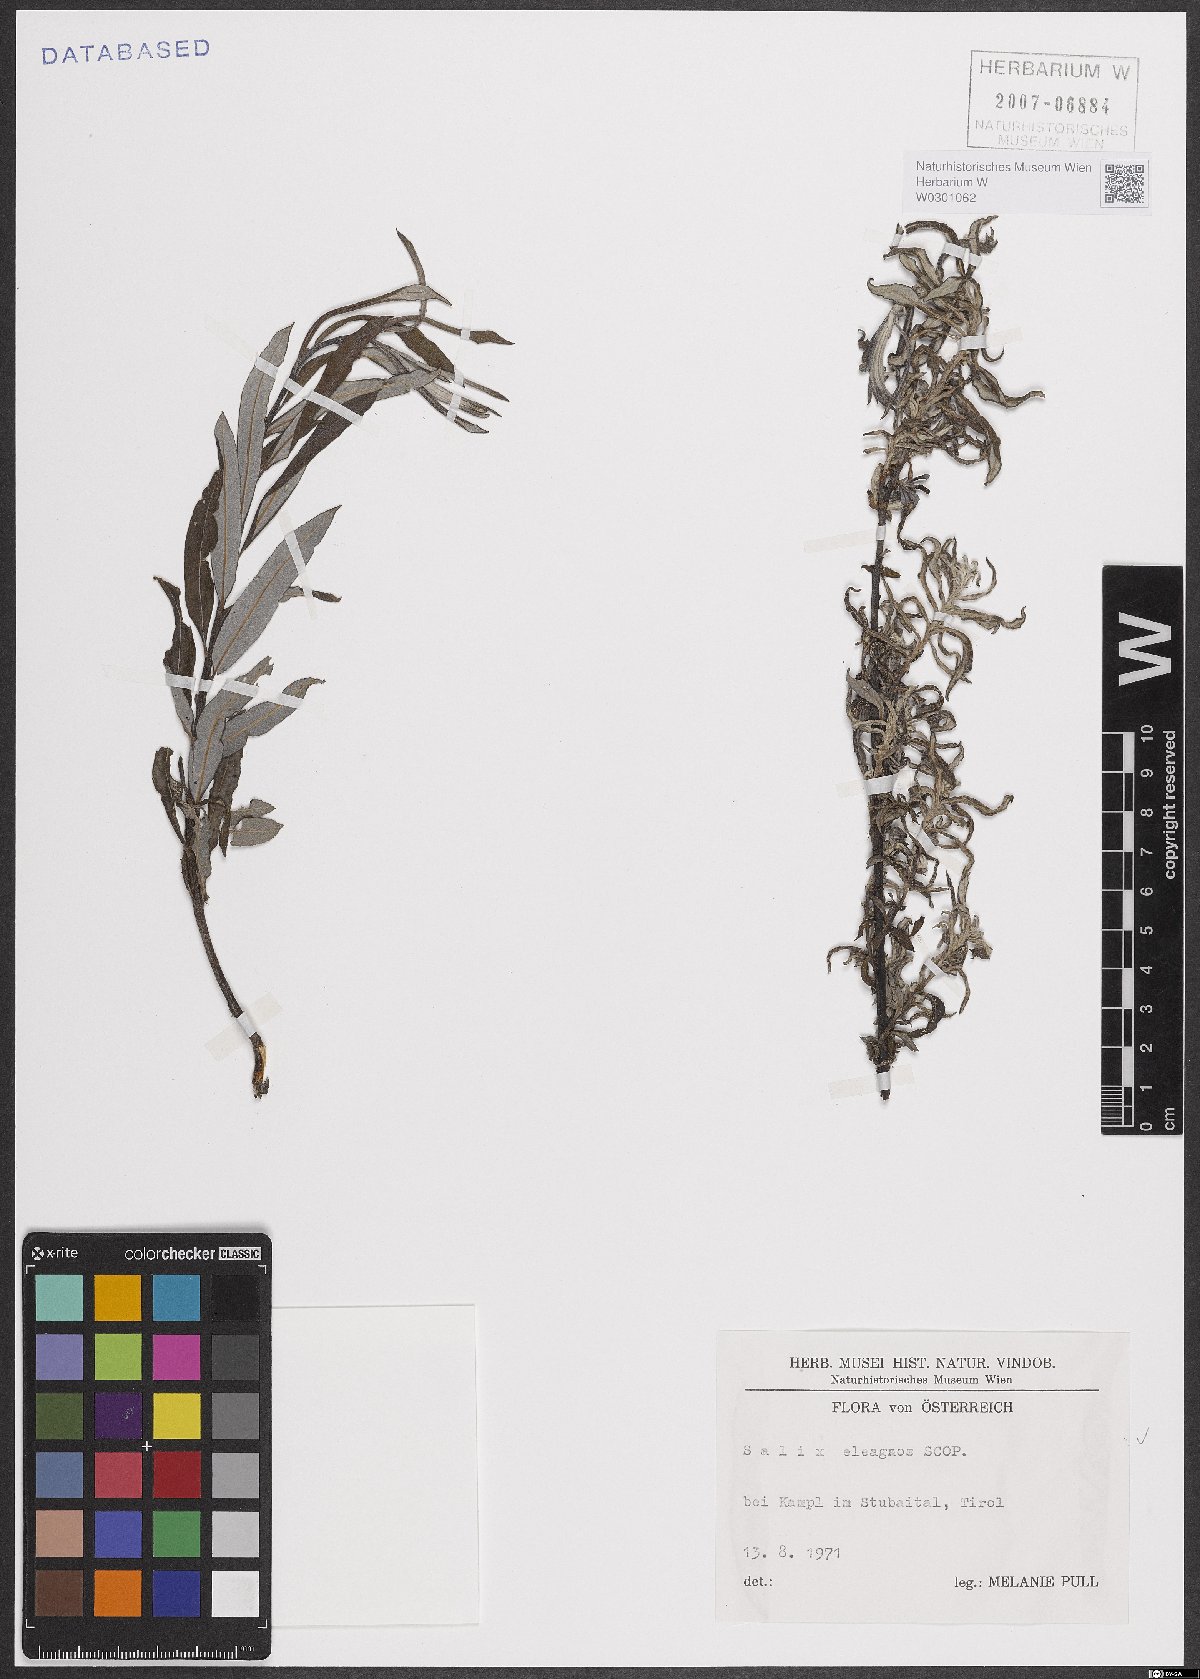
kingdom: Plantae
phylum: Tracheophyta
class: Magnoliopsida
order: Malpighiales
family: Salicaceae
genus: Salix
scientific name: Salix eleagnos
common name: Elaeagnus willow
